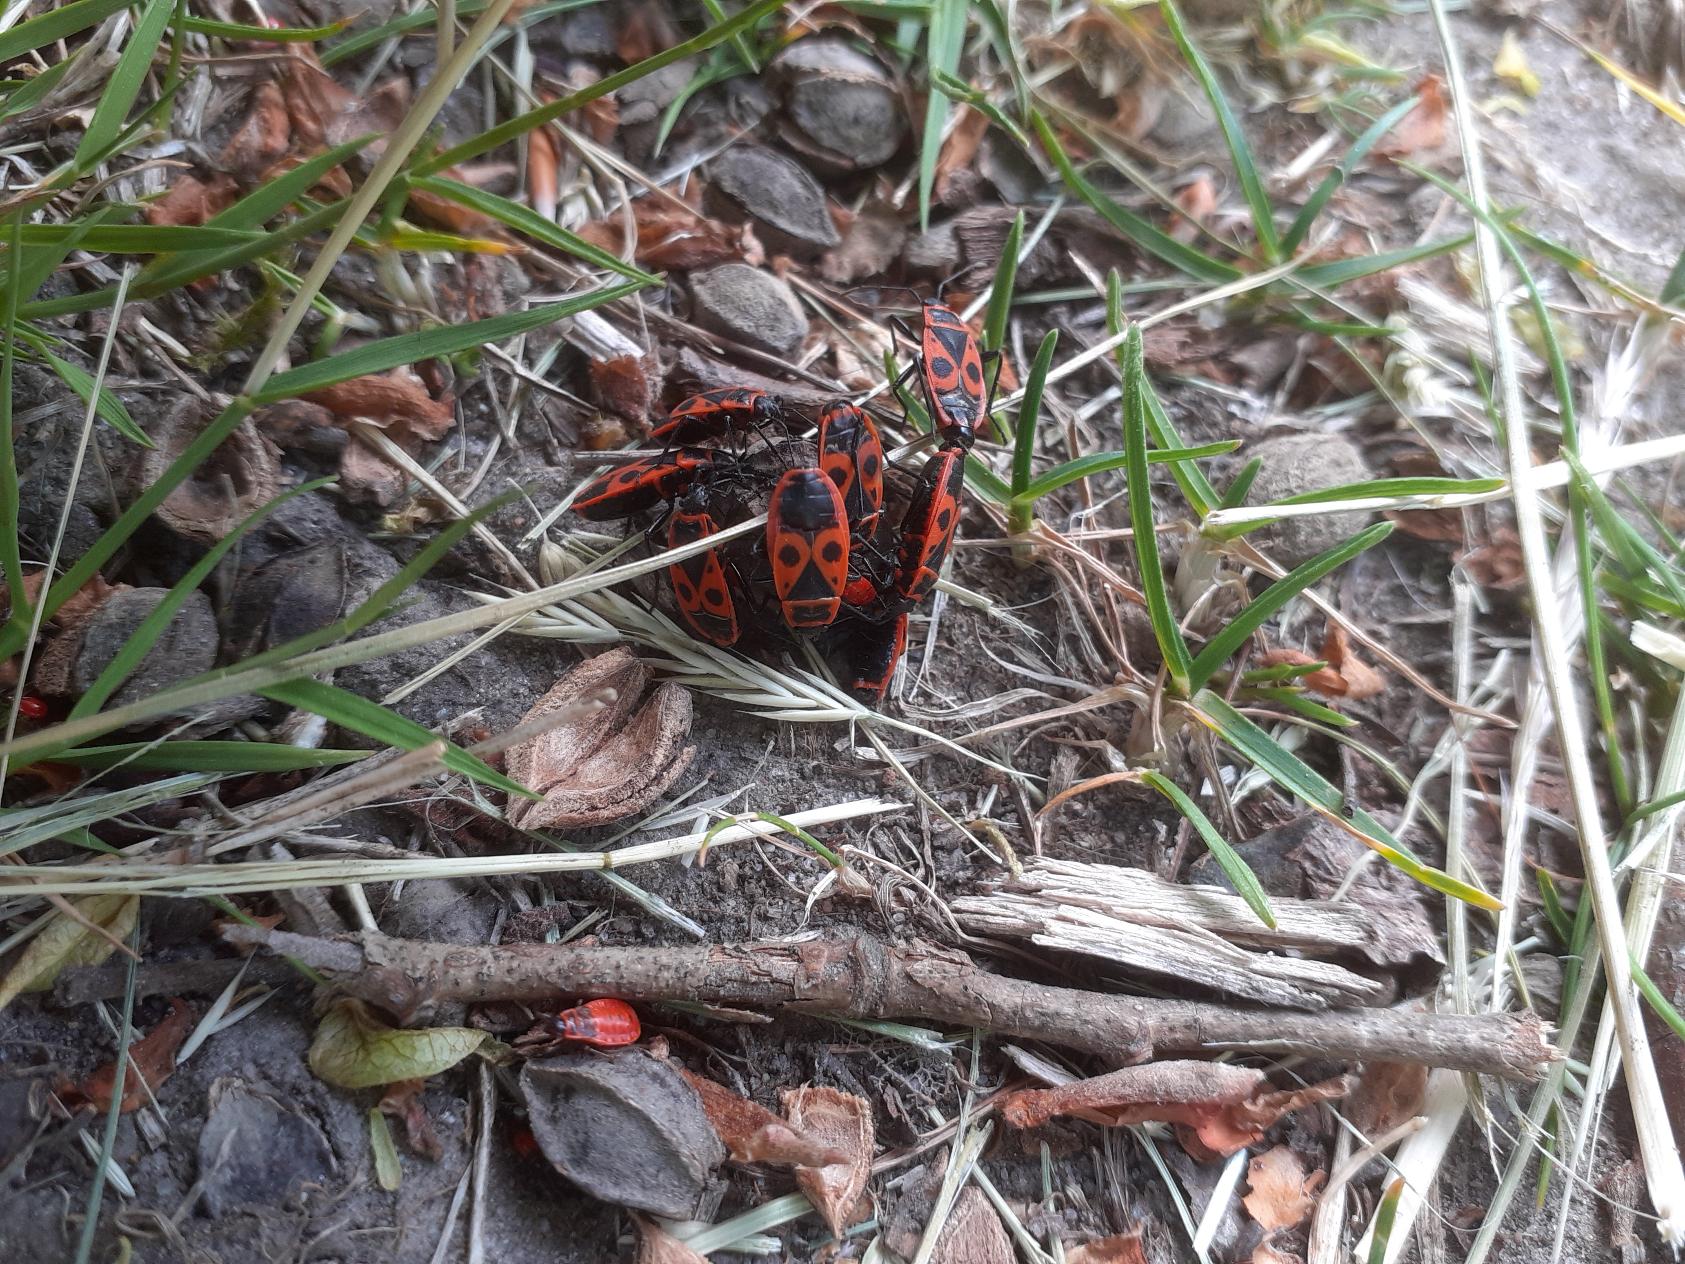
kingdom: Animalia
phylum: Arthropoda
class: Insecta
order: Hemiptera
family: Pyrrhocoridae
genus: Pyrrhocoris
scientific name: Pyrrhocoris apterus
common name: Ildtæge
